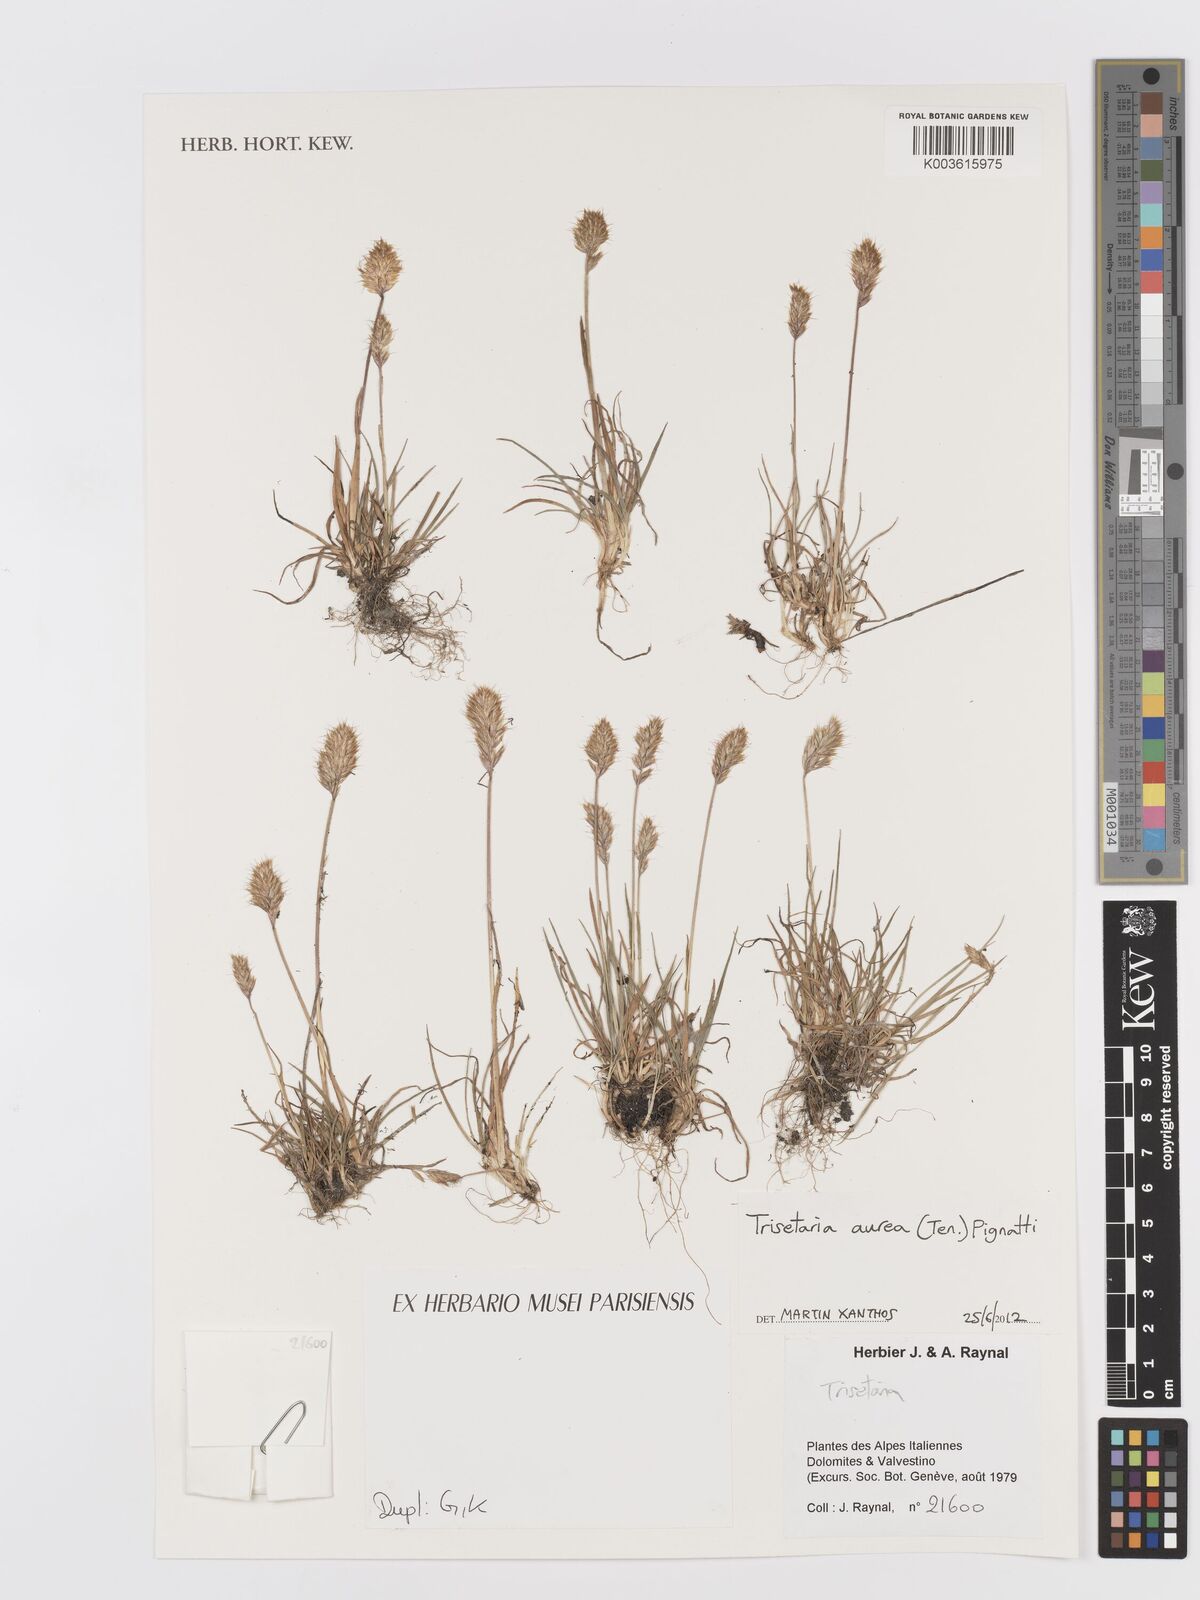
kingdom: Plantae
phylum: Tracheophyta
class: Liliopsida
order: Poales
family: Poaceae
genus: Trisetaria
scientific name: Trisetaria aurea
